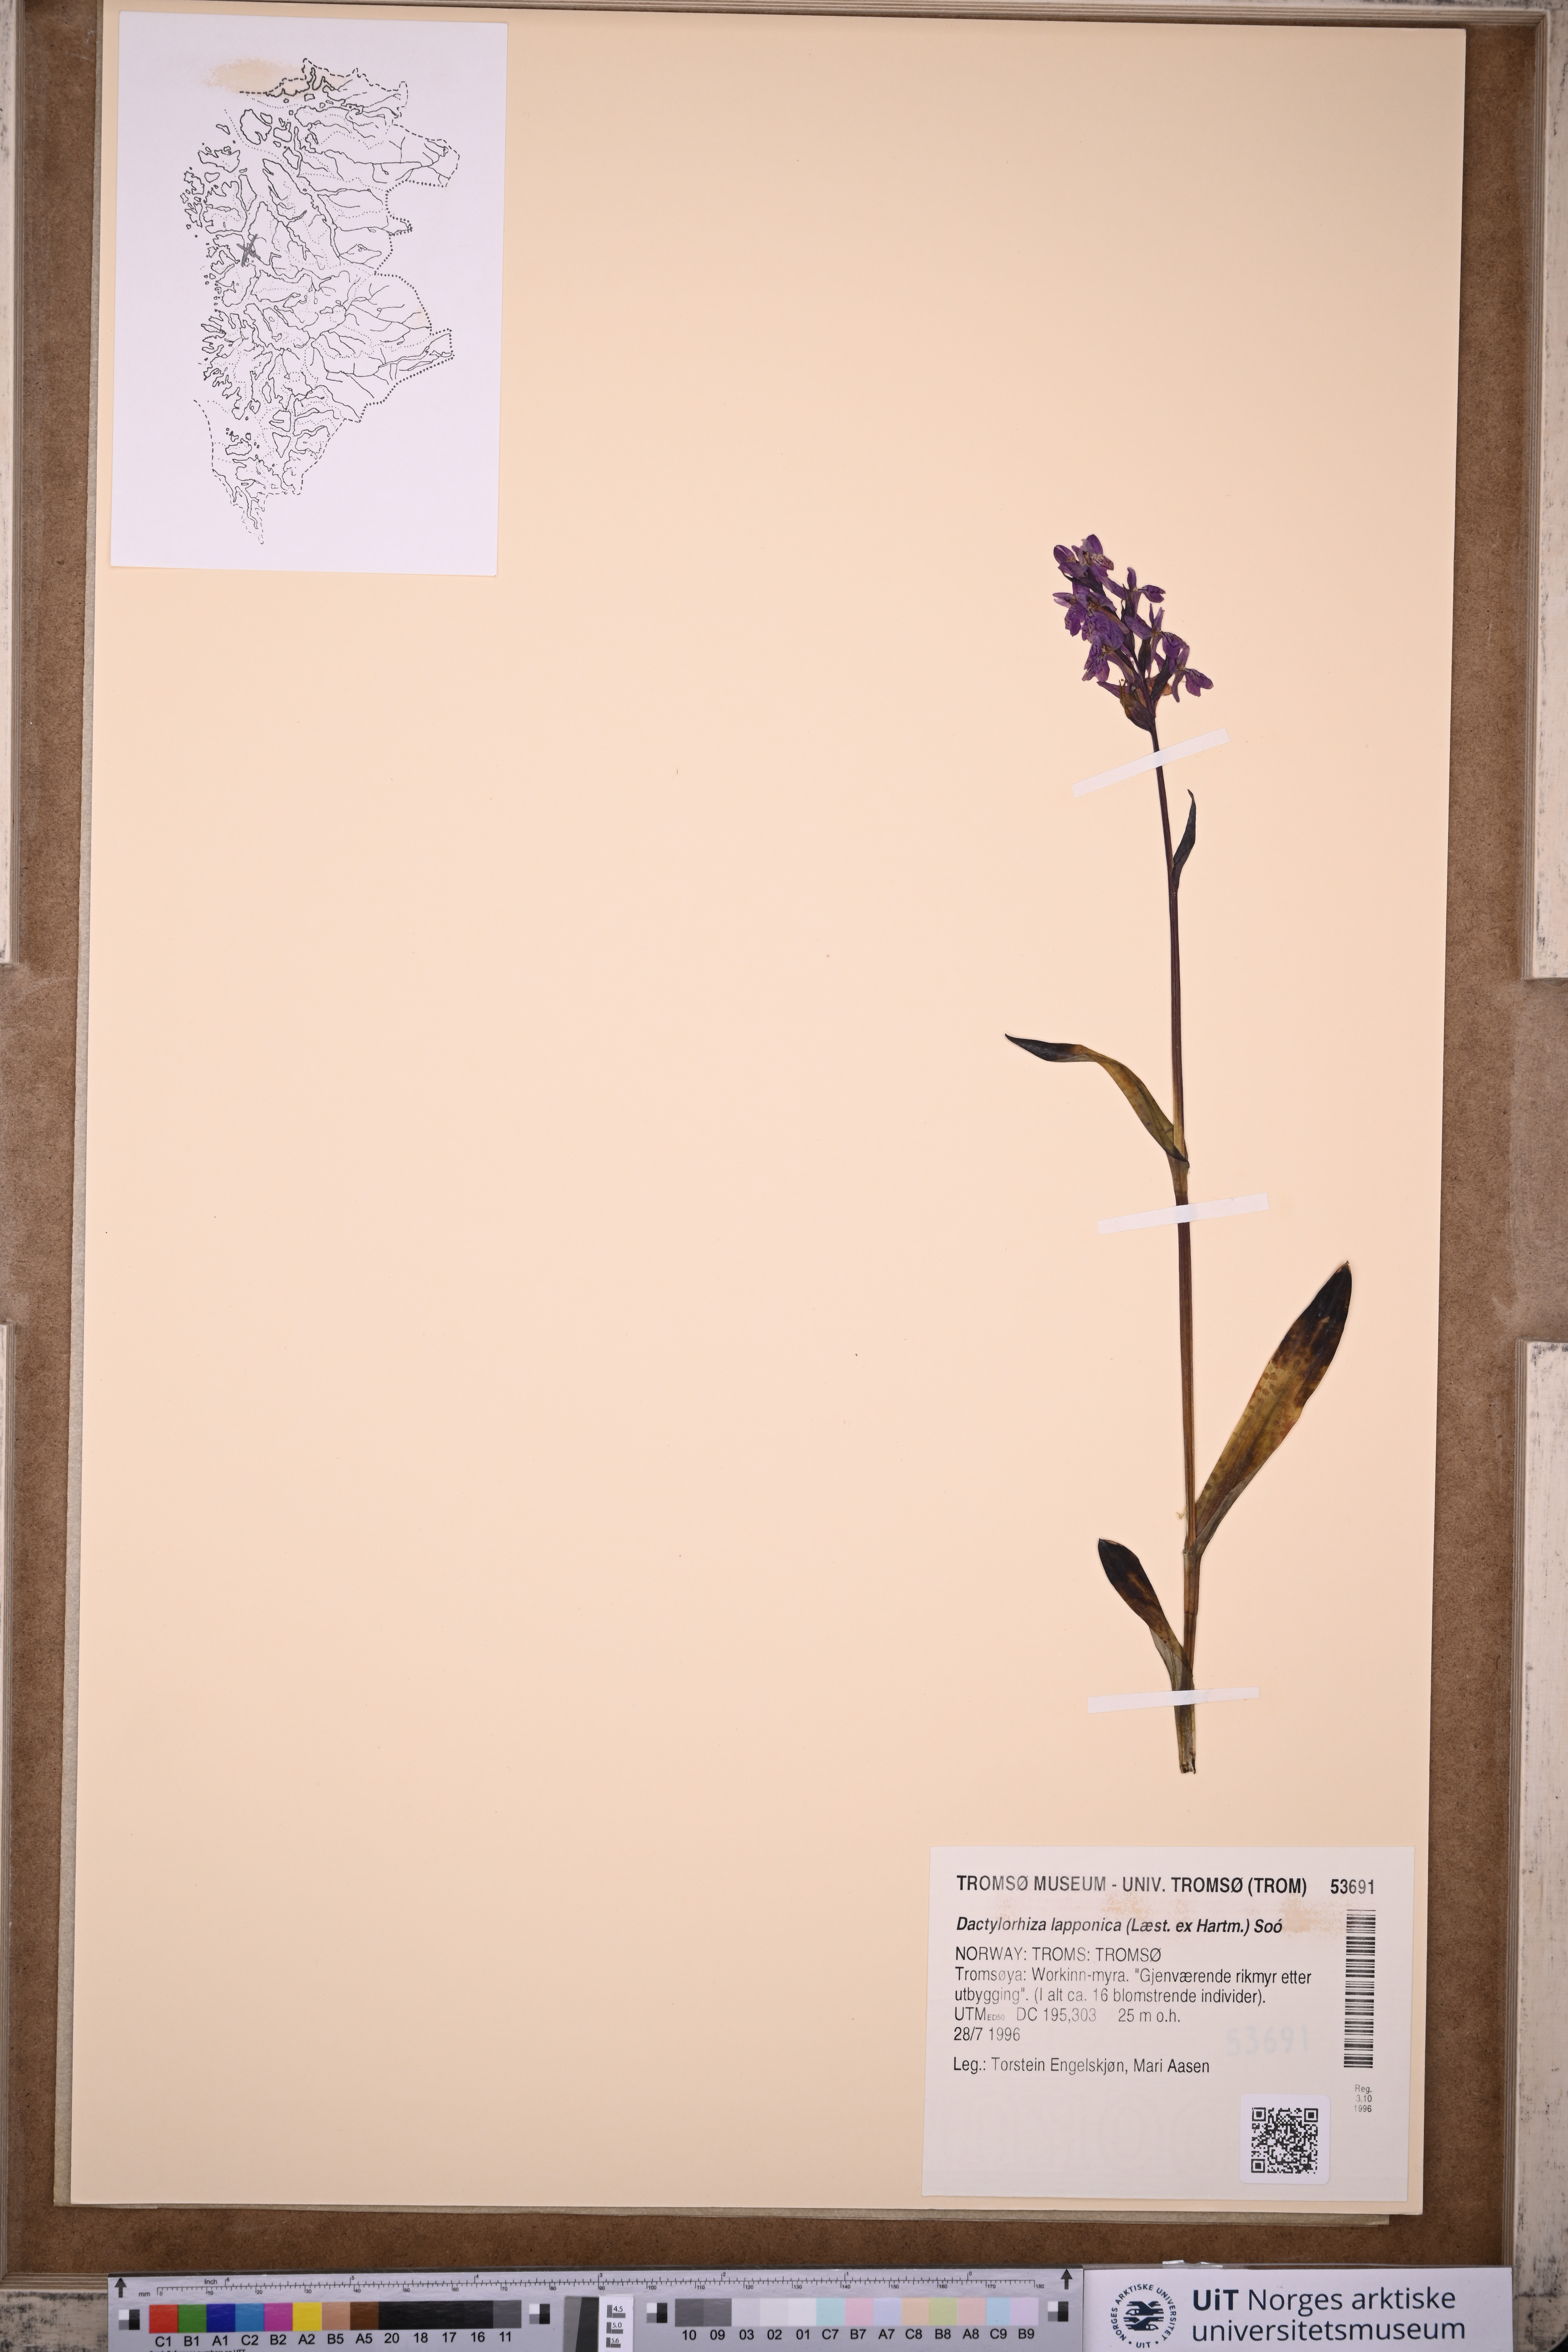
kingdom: Plantae
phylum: Tracheophyta
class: Liliopsida
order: Asparagales
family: Orchidaceae
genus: Dactylorhiza
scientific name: Dactylorhiza majalis
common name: Marsh orchid
